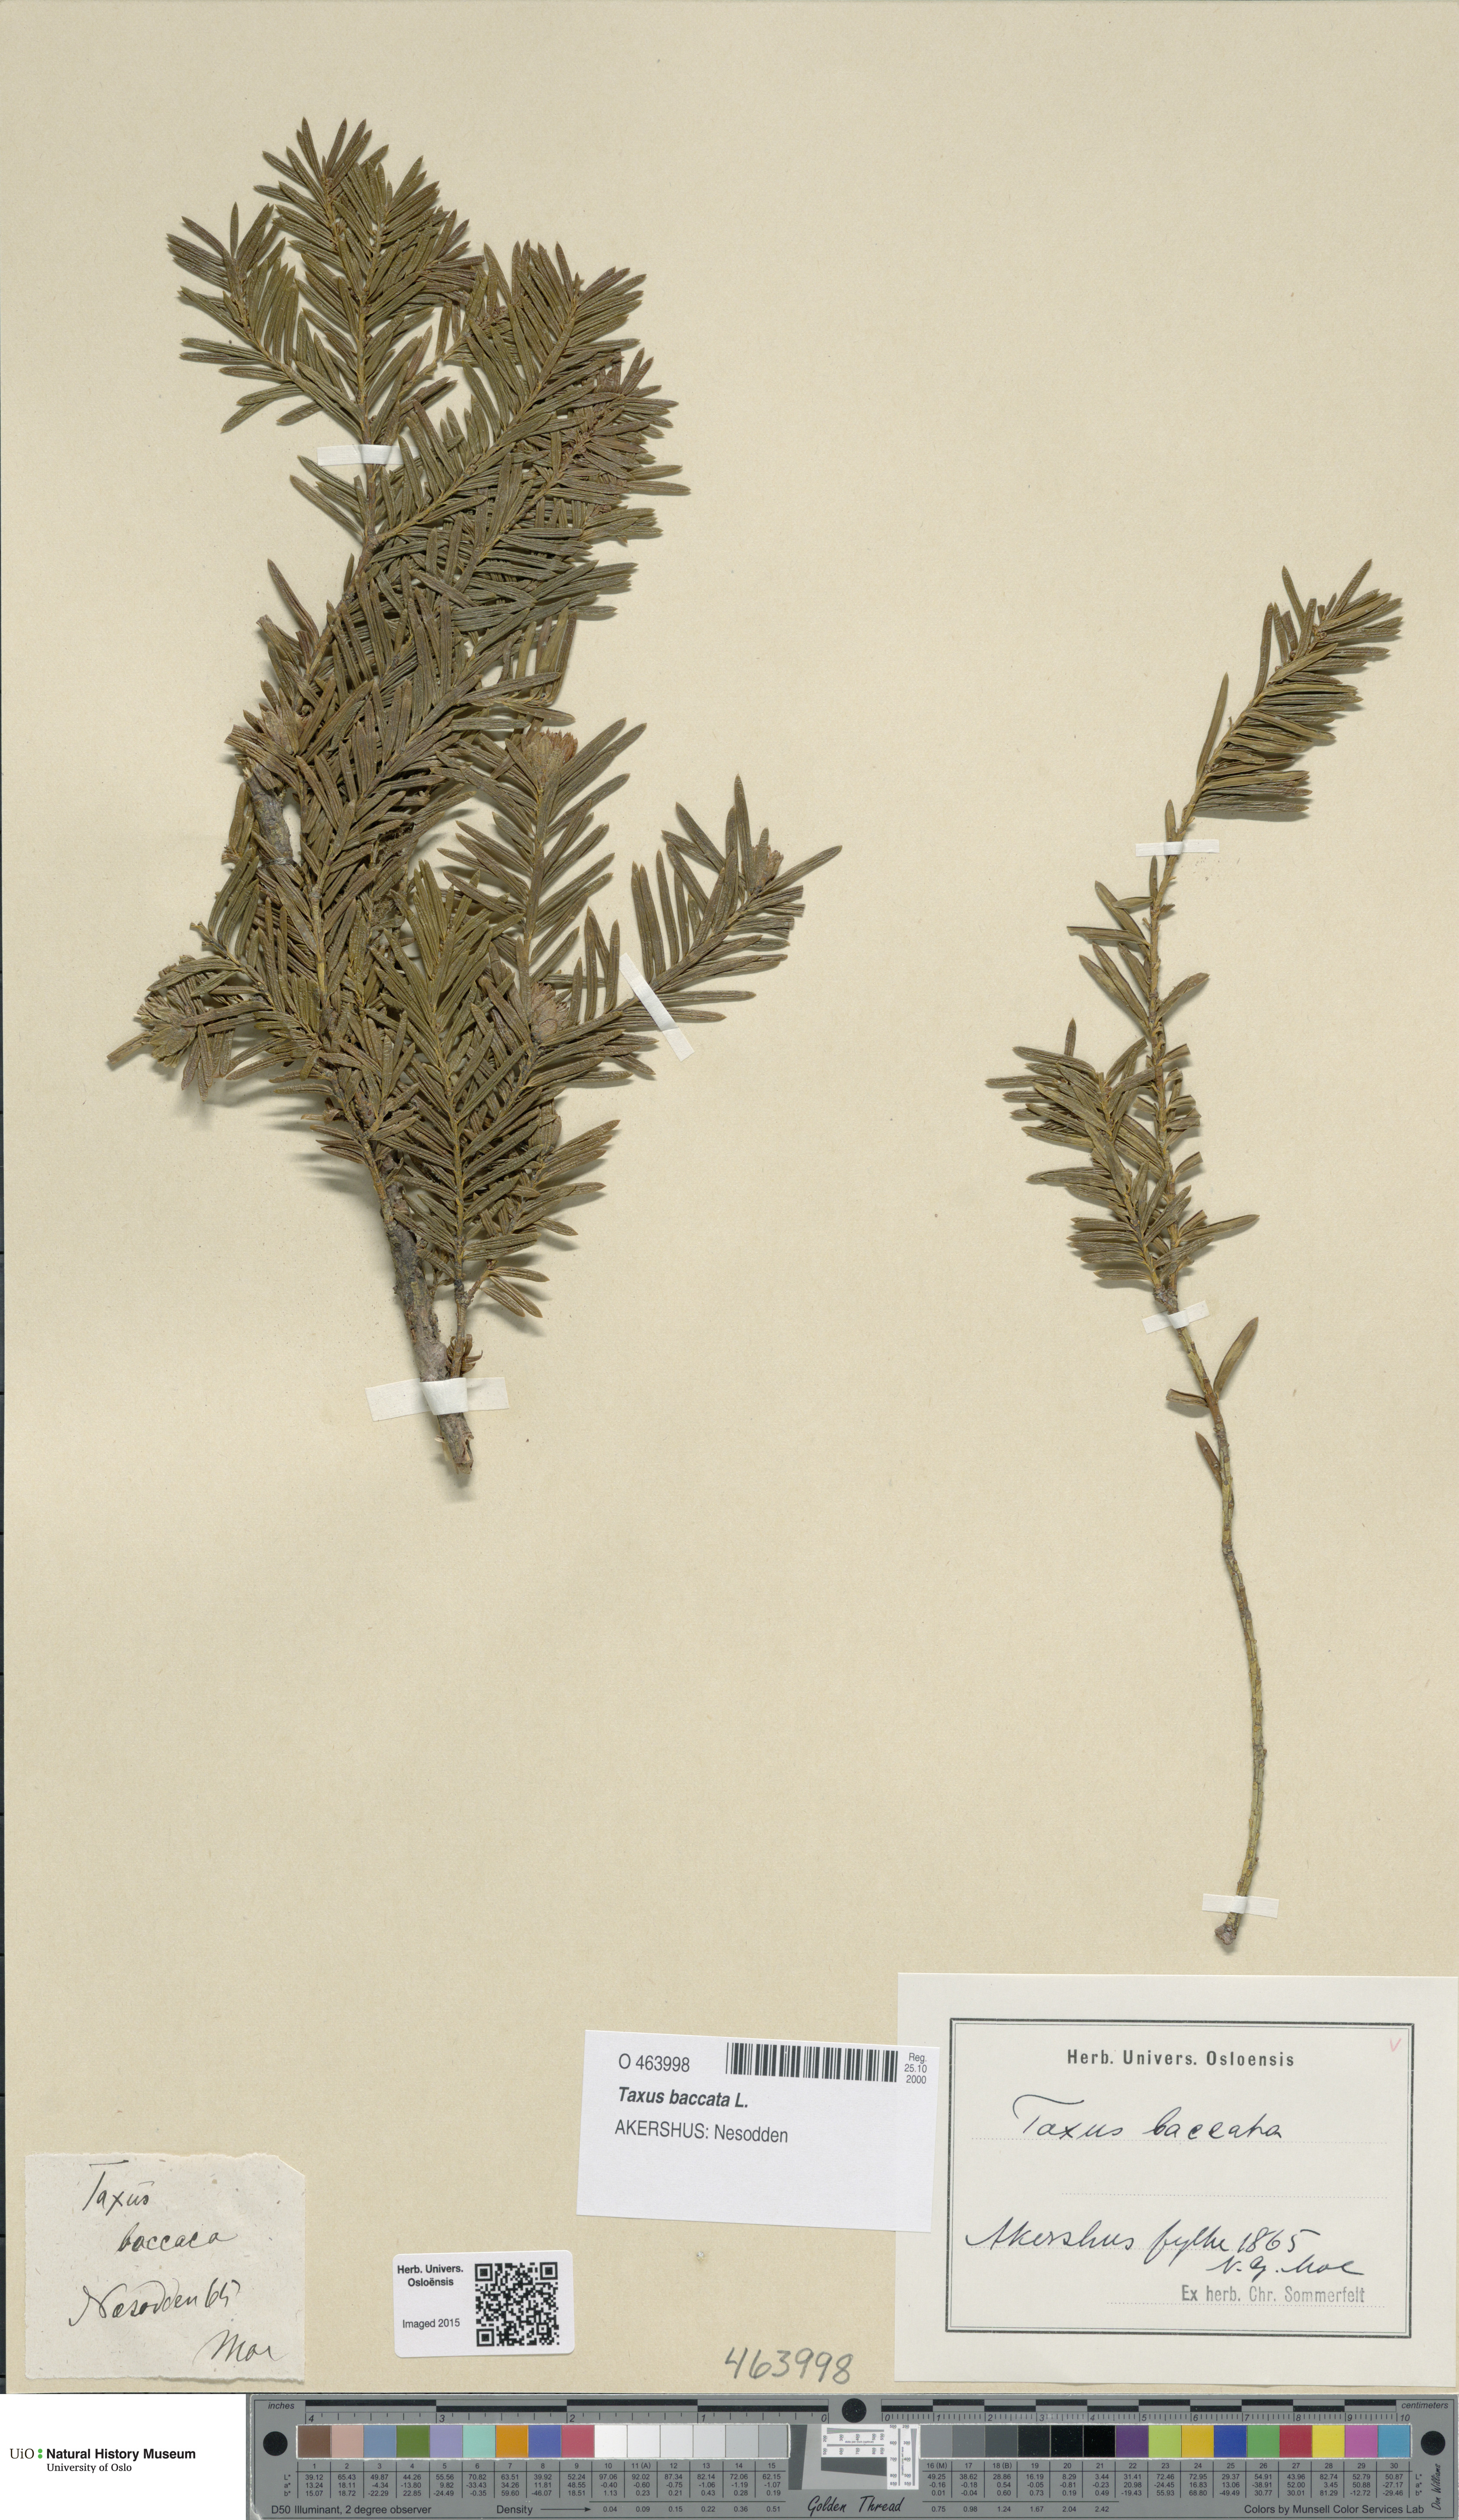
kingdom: Plantae
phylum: Tracheophyta
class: Pinopsida
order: Pinales
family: Taxaceae
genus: Taxus
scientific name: Taxus baccata
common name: Yew
